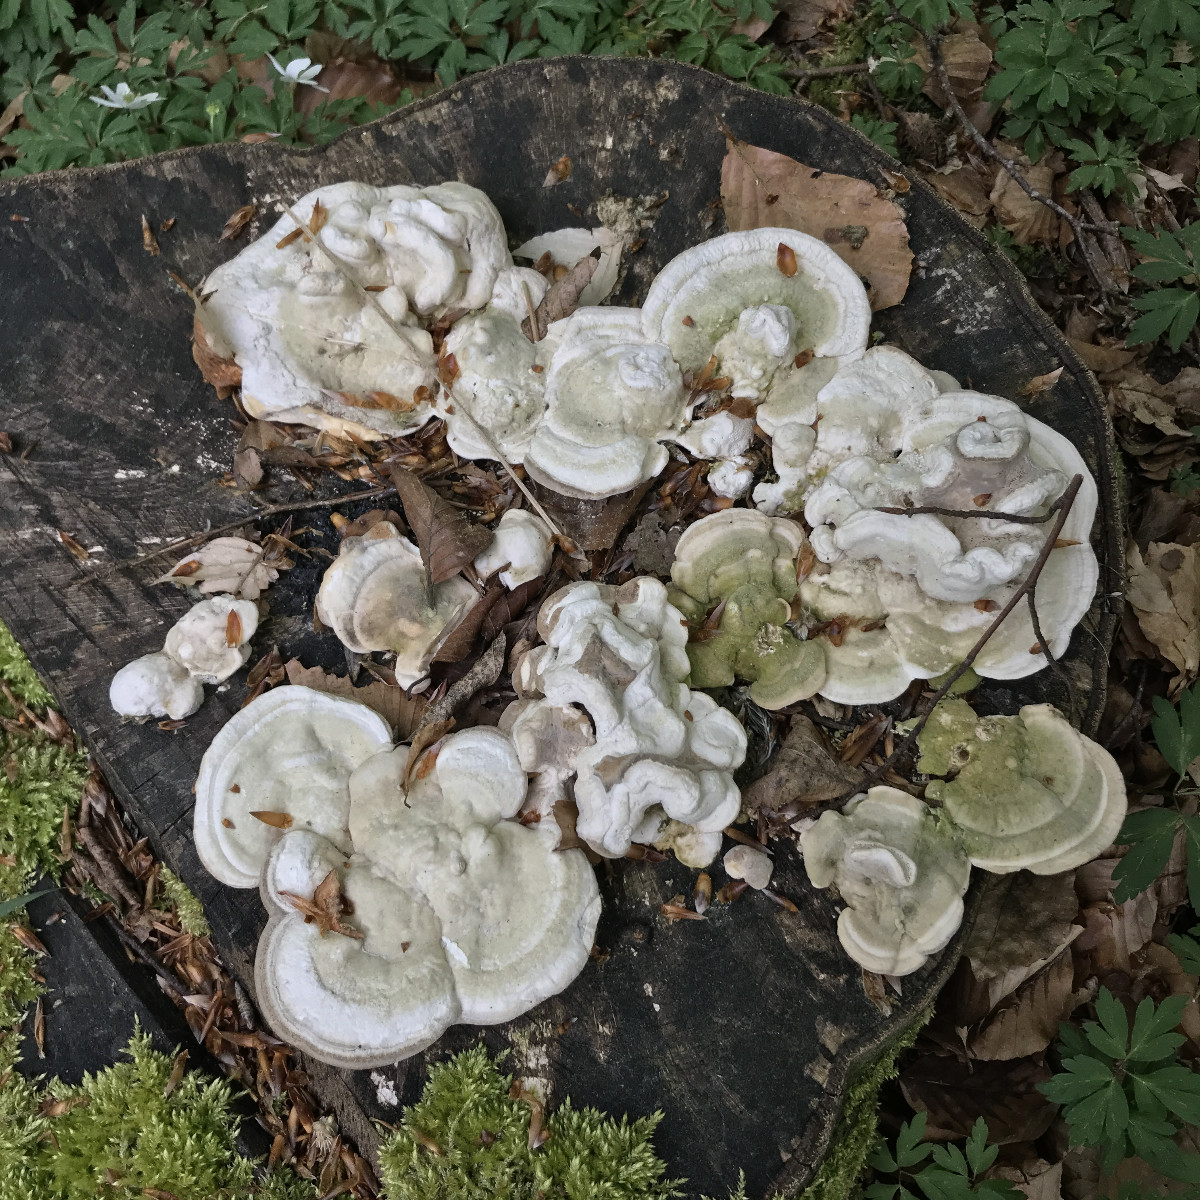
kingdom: Fungi
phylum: Basidiomycota
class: Agaricomycetes
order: Polyporales
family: Polyporaceae
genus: Trametes
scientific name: Trametes gibbosa
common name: puklet læderporesvamp
